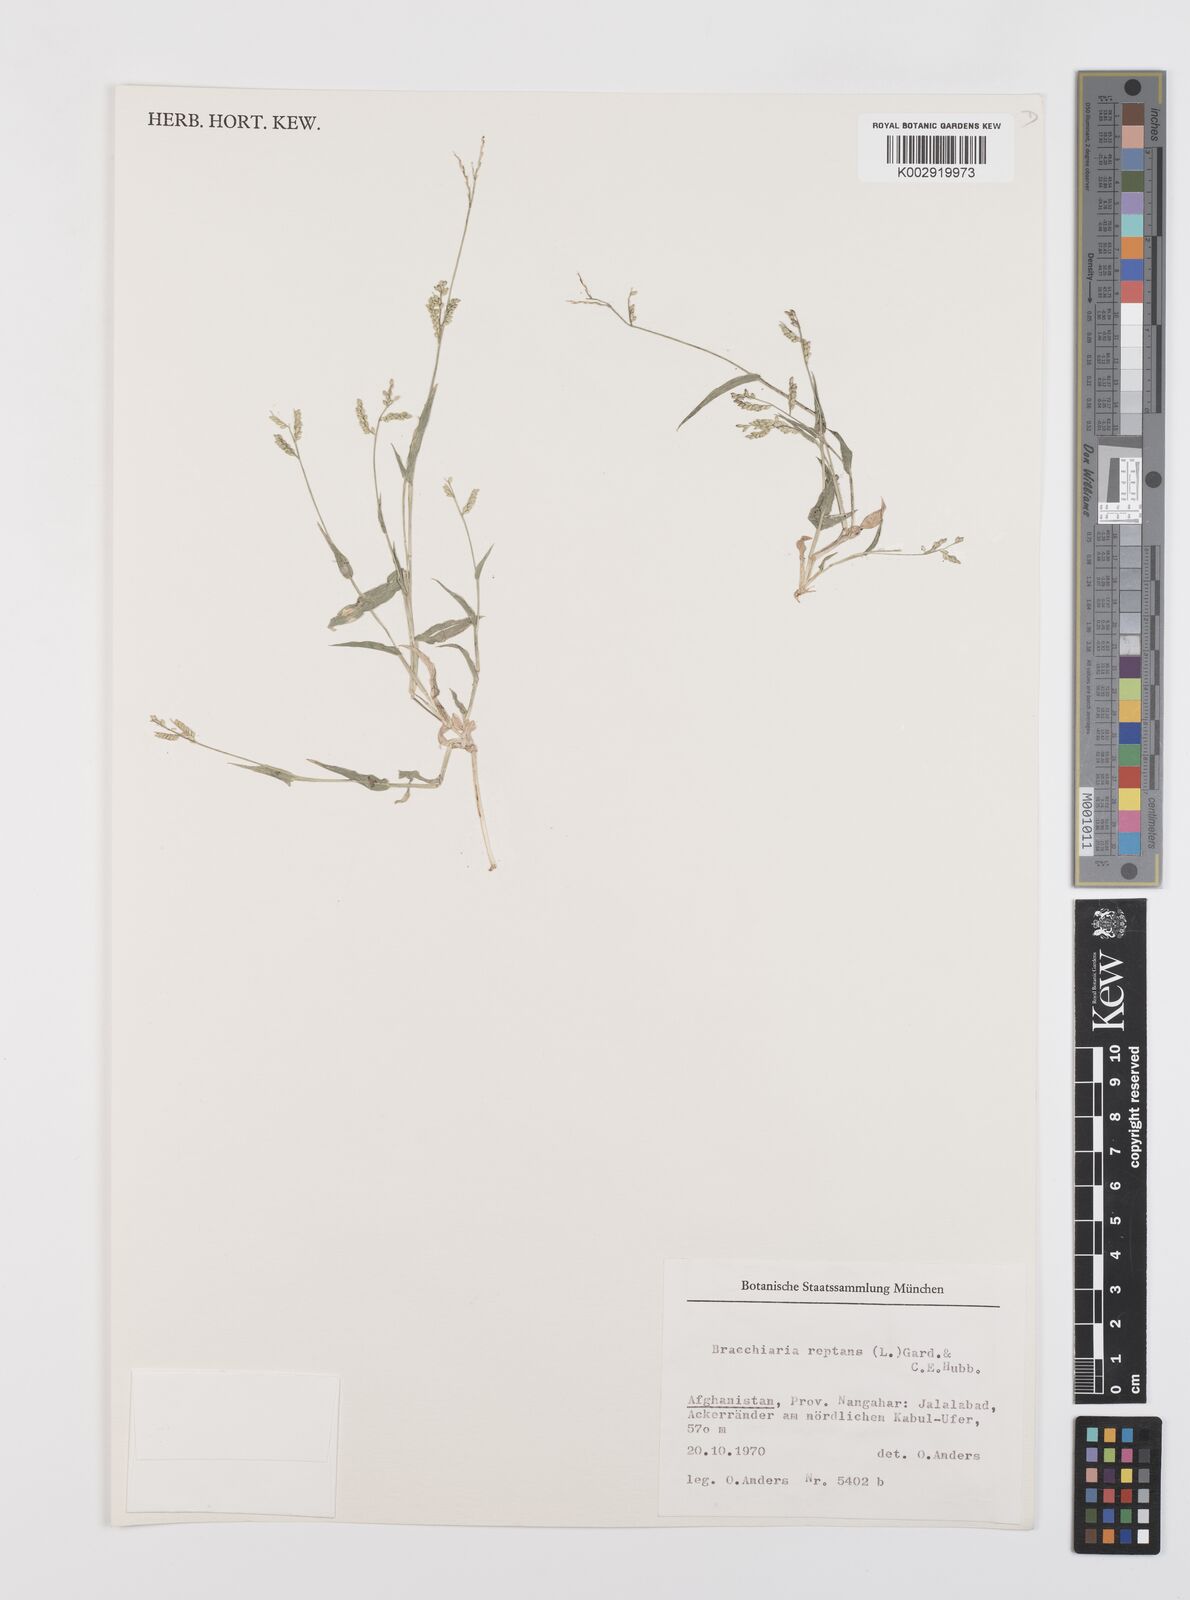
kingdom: Plantae
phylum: Tracheophyta
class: Liliopsida
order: Poales
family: Poaceae
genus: Urochloa
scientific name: Urochloa reptans
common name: Sprawling signalgrass
